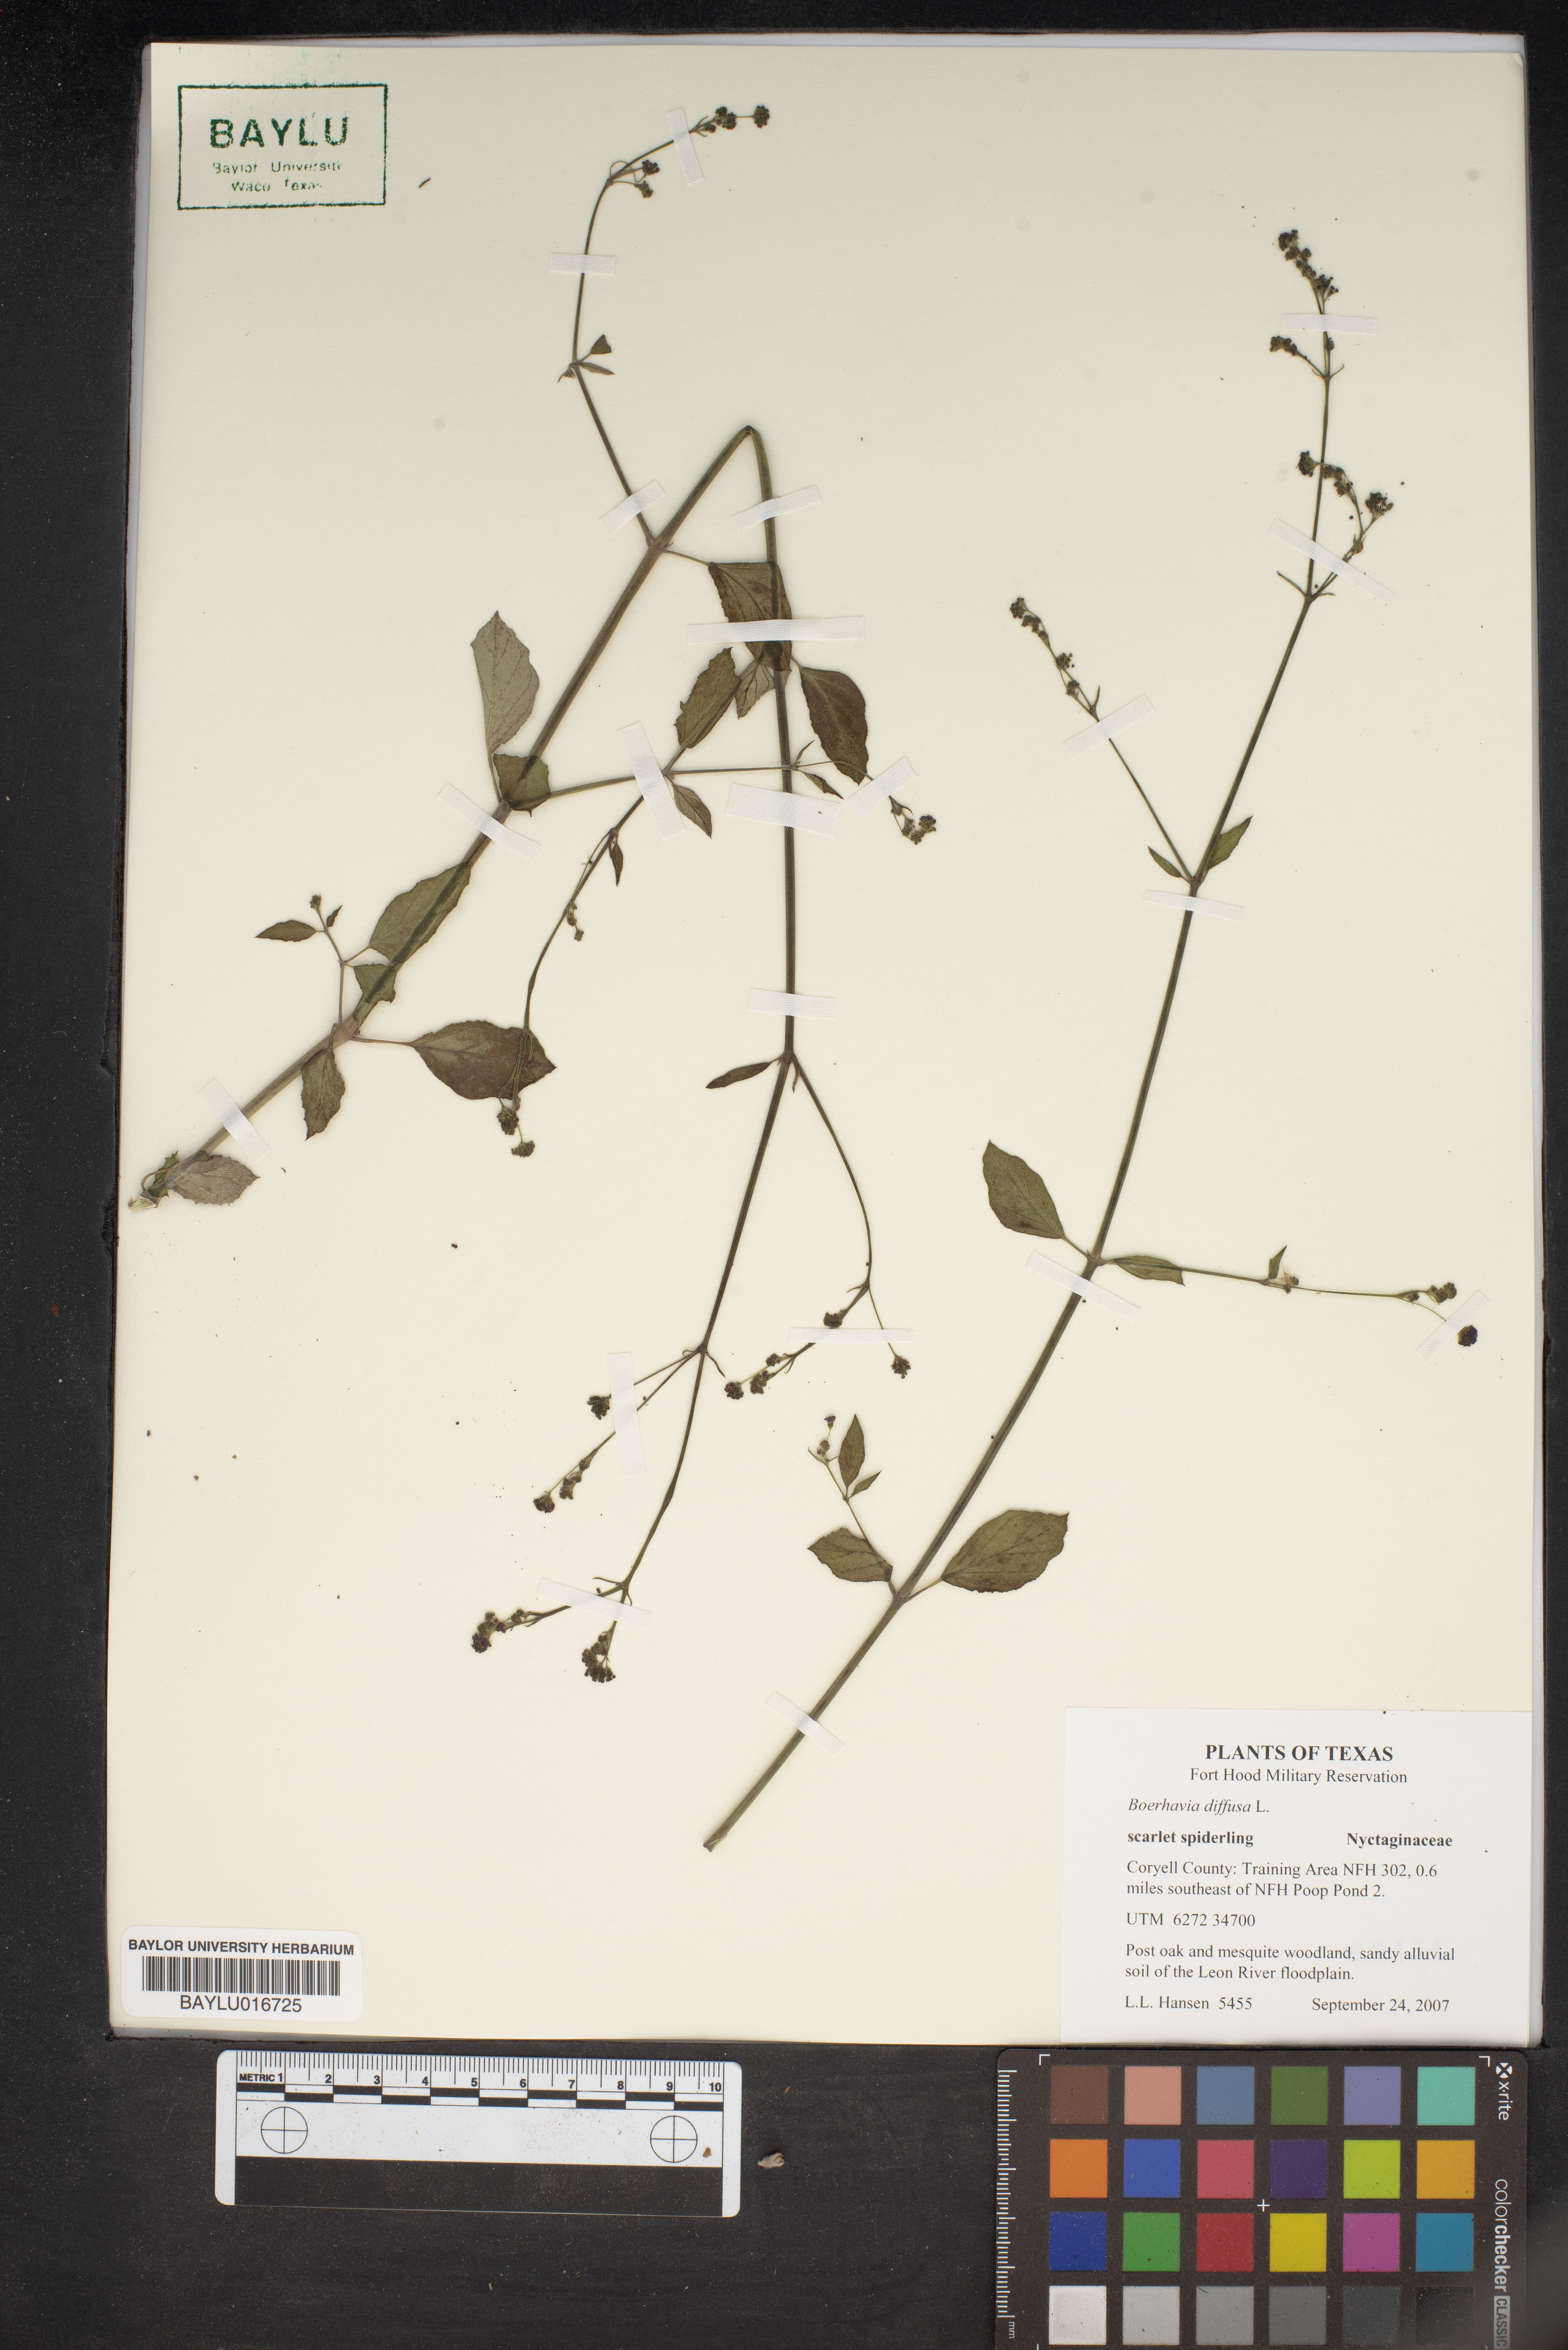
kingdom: Plantae
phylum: Tracheophyta
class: Magnoliopsida
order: Caryophyllales
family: Nyctaginaceae
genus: Boerhavia
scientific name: Boerhavia diffusa
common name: Red spiderling
